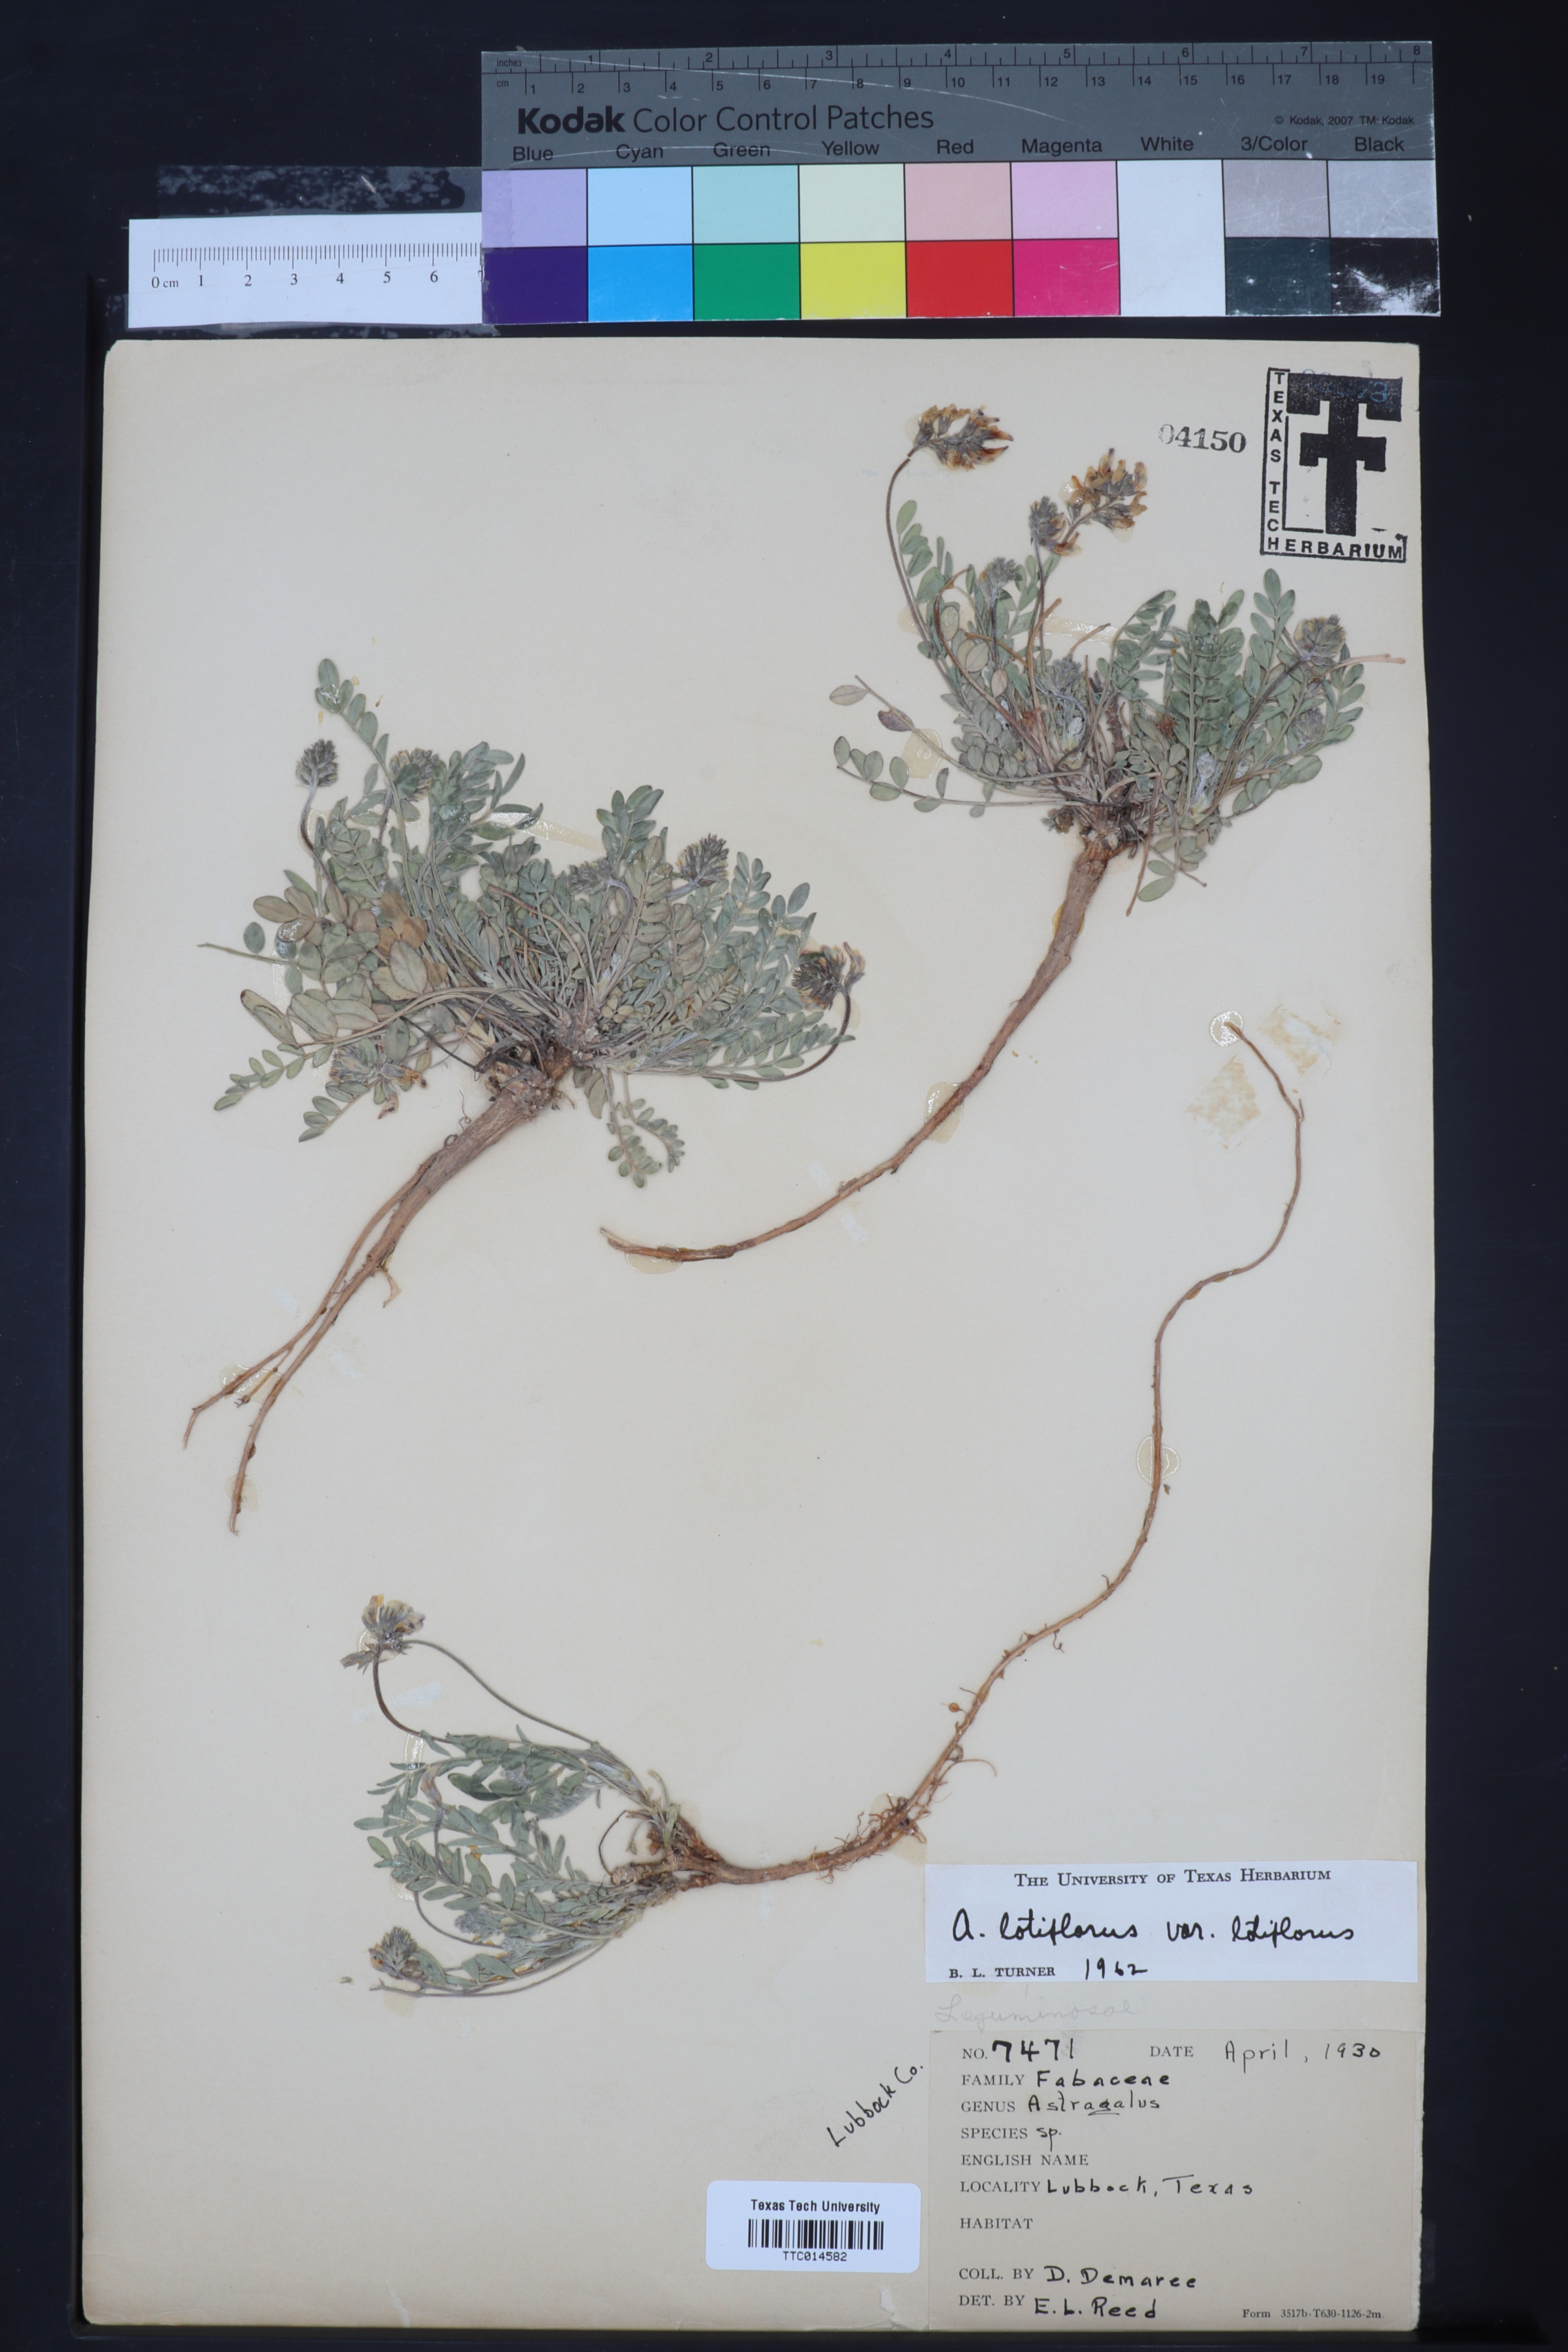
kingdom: Plantae
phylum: Tracheophyta
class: Magnoliopsida
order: Fabales
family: Fabaceae
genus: Astragalus
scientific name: Astragalus lotiflorus
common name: Lotus milk-vetch
